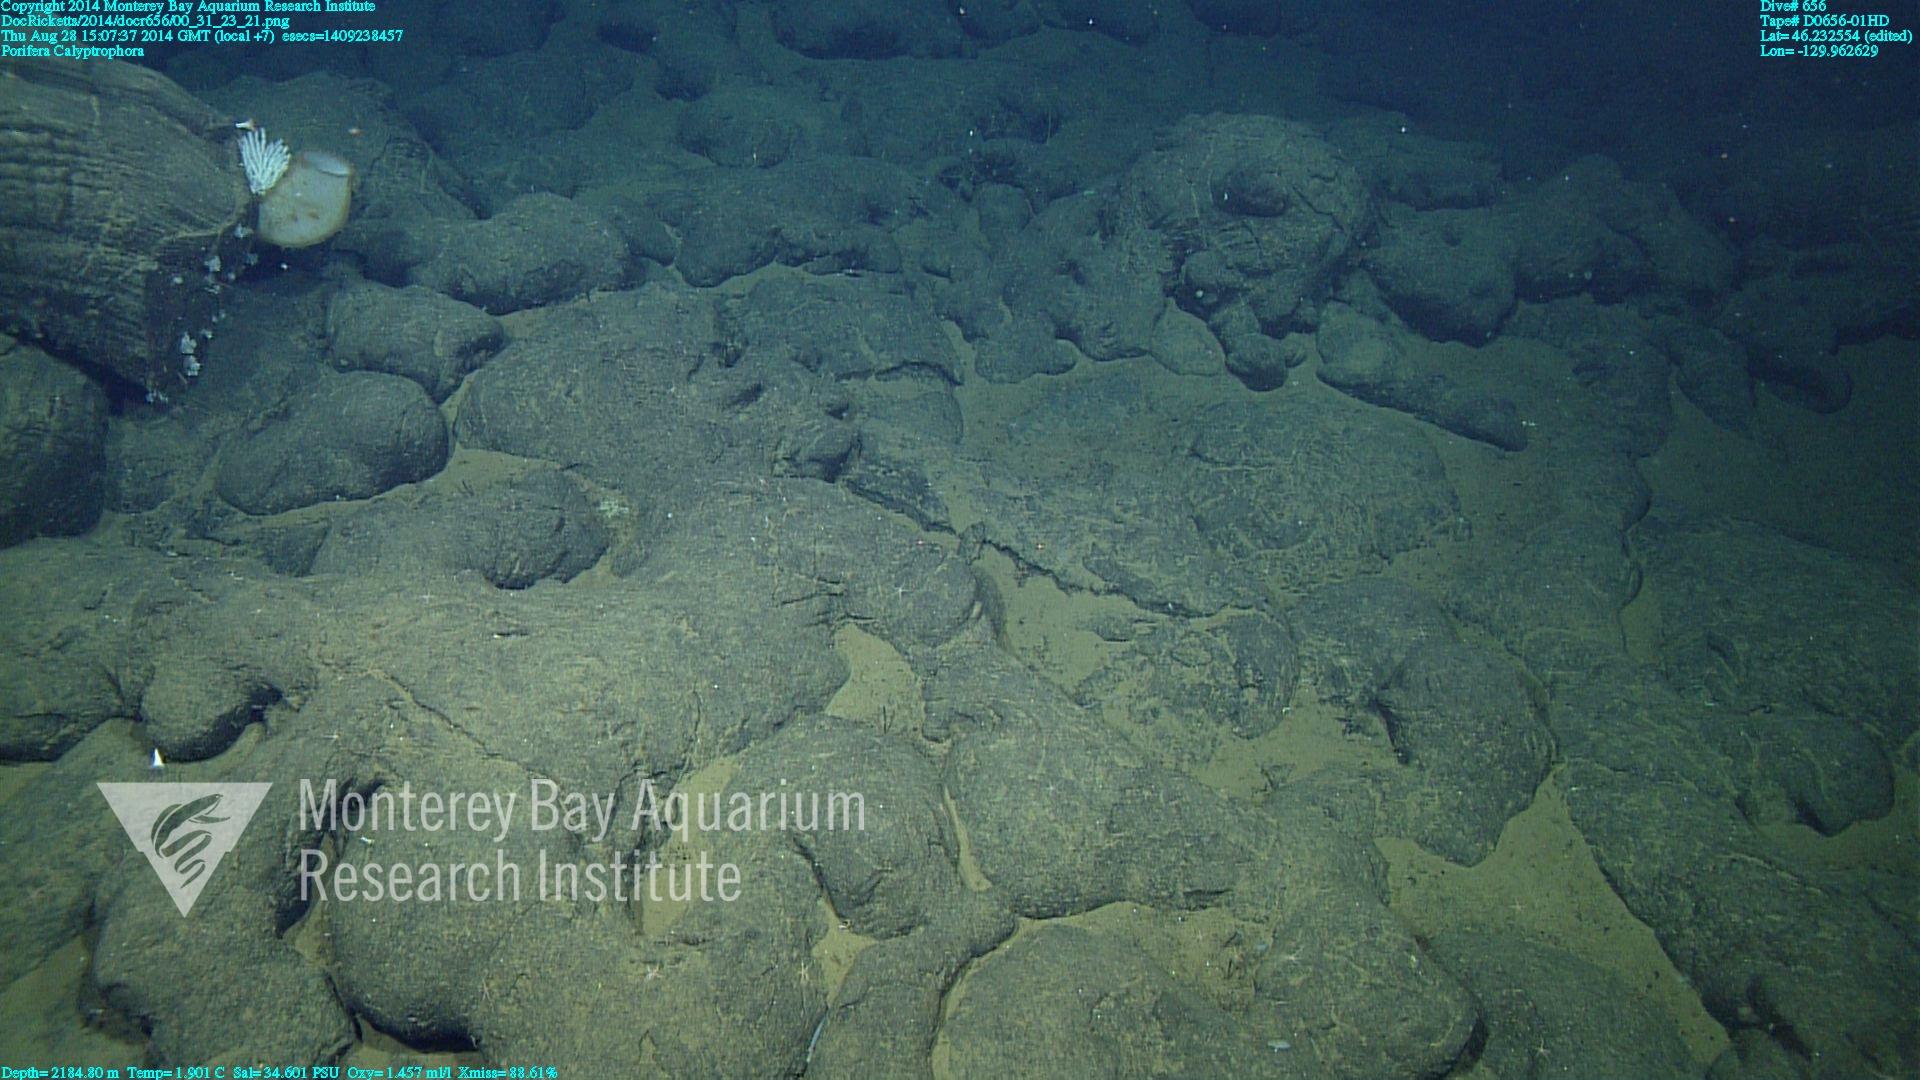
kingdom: Animalia
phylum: Cnidaria
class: Anthozoa
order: Scleralcyonacea
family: Primnoidae
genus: Calyptrophora
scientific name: Calyptrophora
